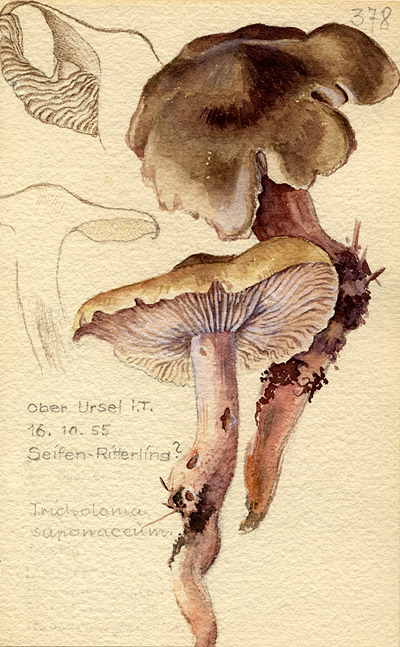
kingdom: Fungi
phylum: Basidiomycota
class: Agaricomycetes
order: Agaricales
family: Tricholomataceae
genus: Tricholoma
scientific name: Tricholoma saponaceum
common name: Soapy trich
